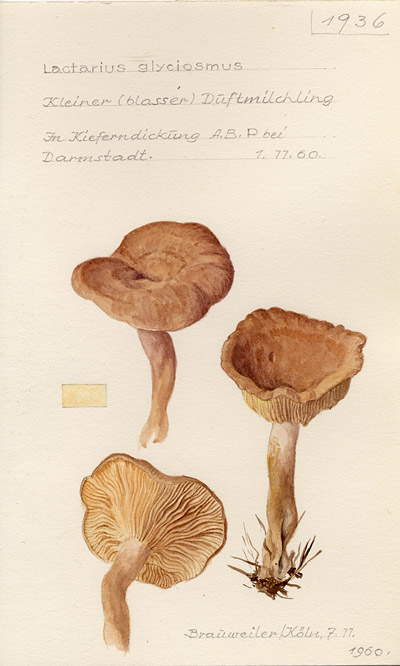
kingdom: Fungi
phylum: Basidiomycota
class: Agaricomycetes
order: Russulales
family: Russulaceae
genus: Lactarius
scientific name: Lactarius glyciosmus
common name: Coconut milkcap
